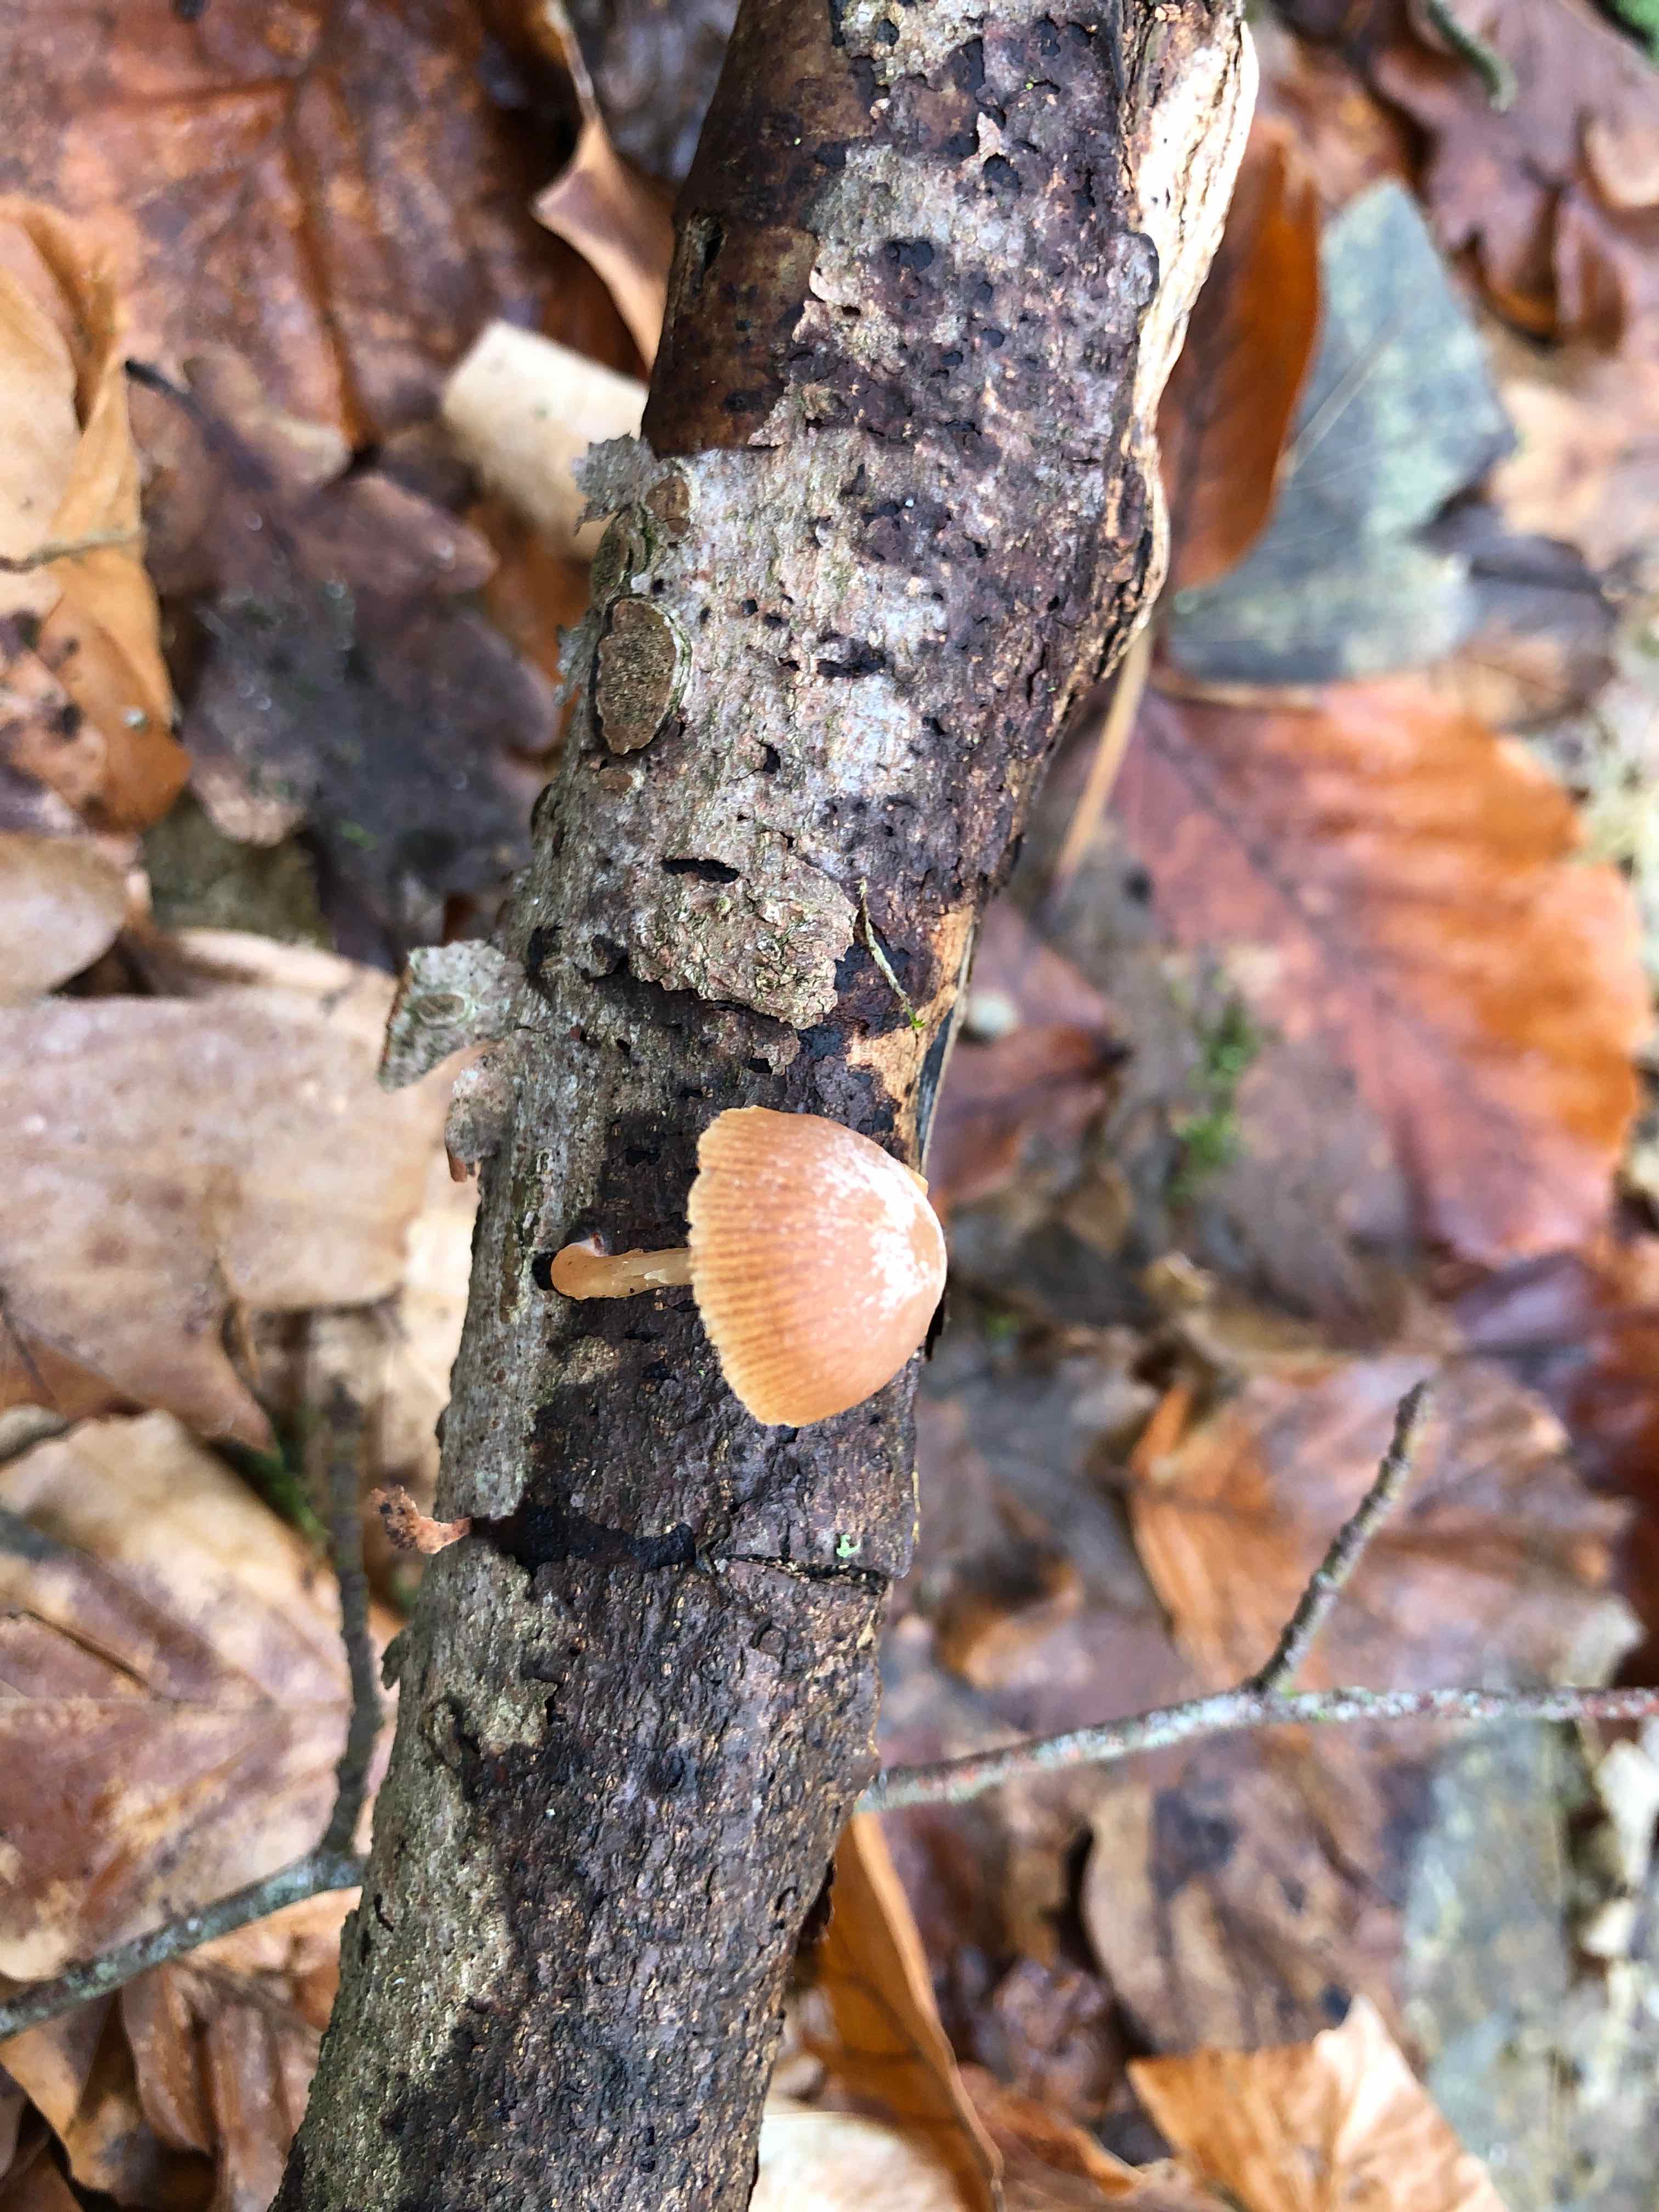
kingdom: Fungi
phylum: Basidiomycota
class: Agaricomycetes
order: Agaricales
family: Tubariaceae
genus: Tubaria
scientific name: Tubaria furfuracea
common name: kliddet fnughat
